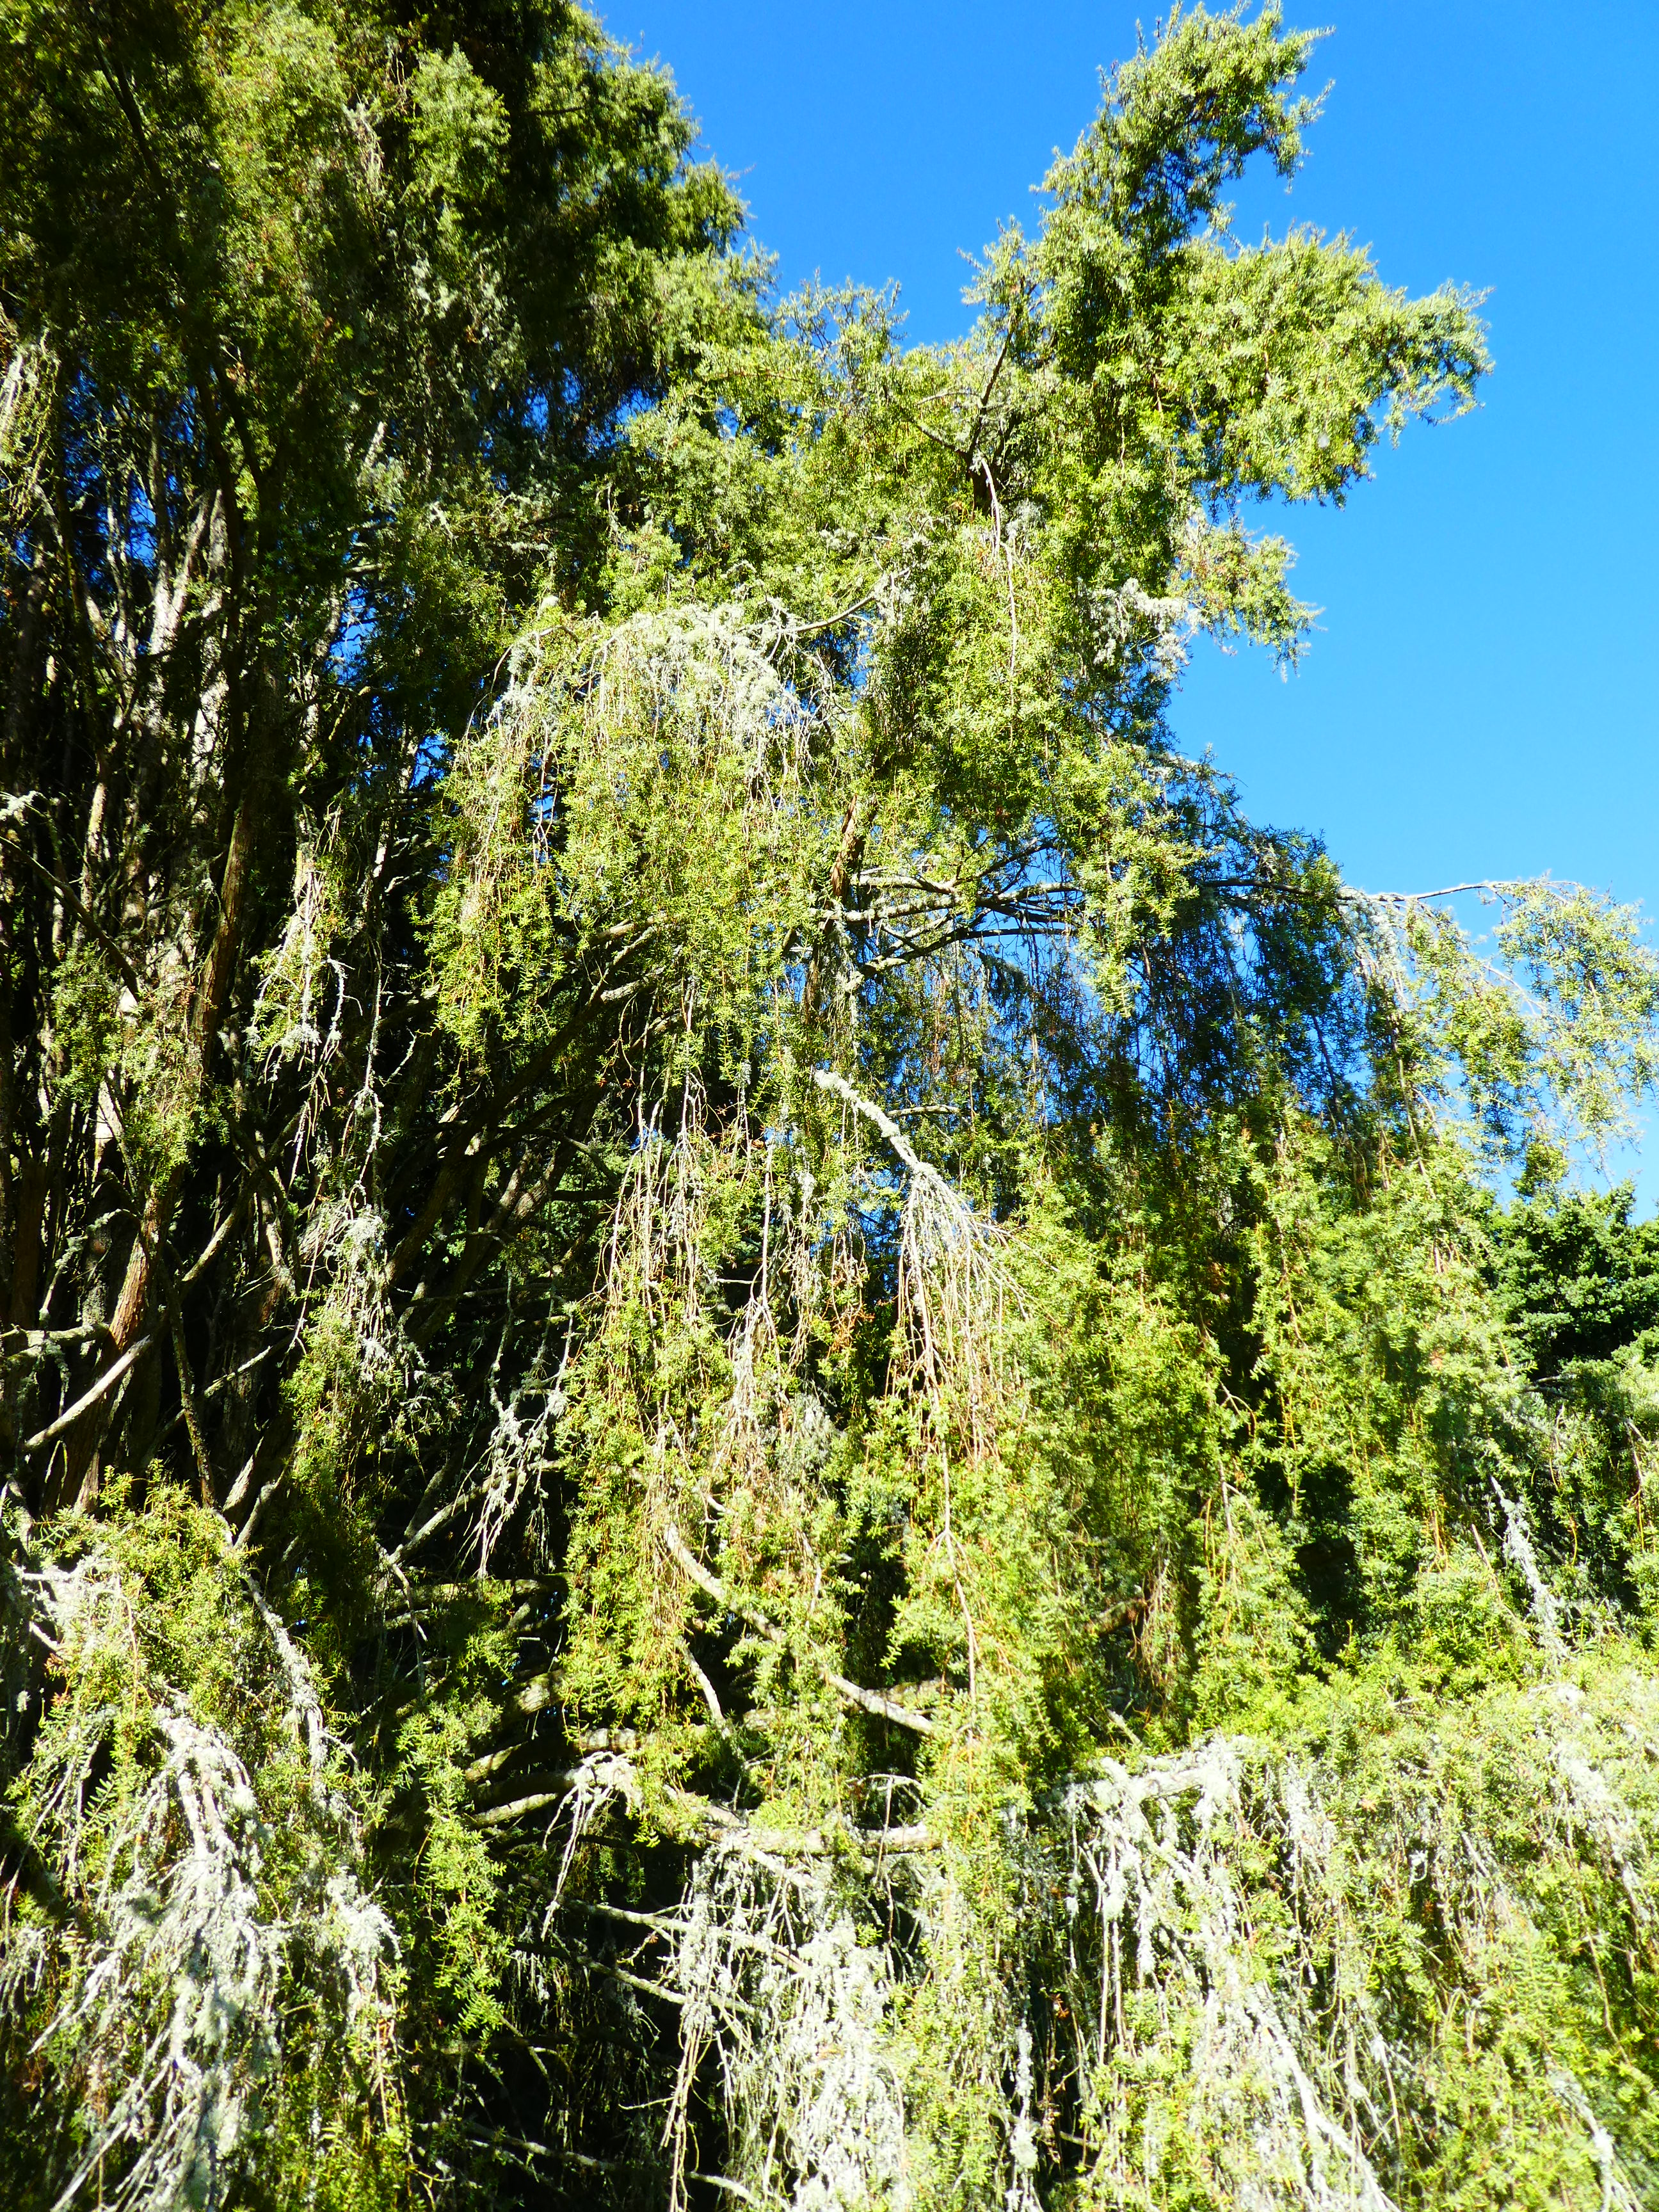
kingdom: Plantae
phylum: Tracheophyta
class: Pinopsida
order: Pinales
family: Podocarpaceae
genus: Podocarpus
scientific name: Podocarpus
